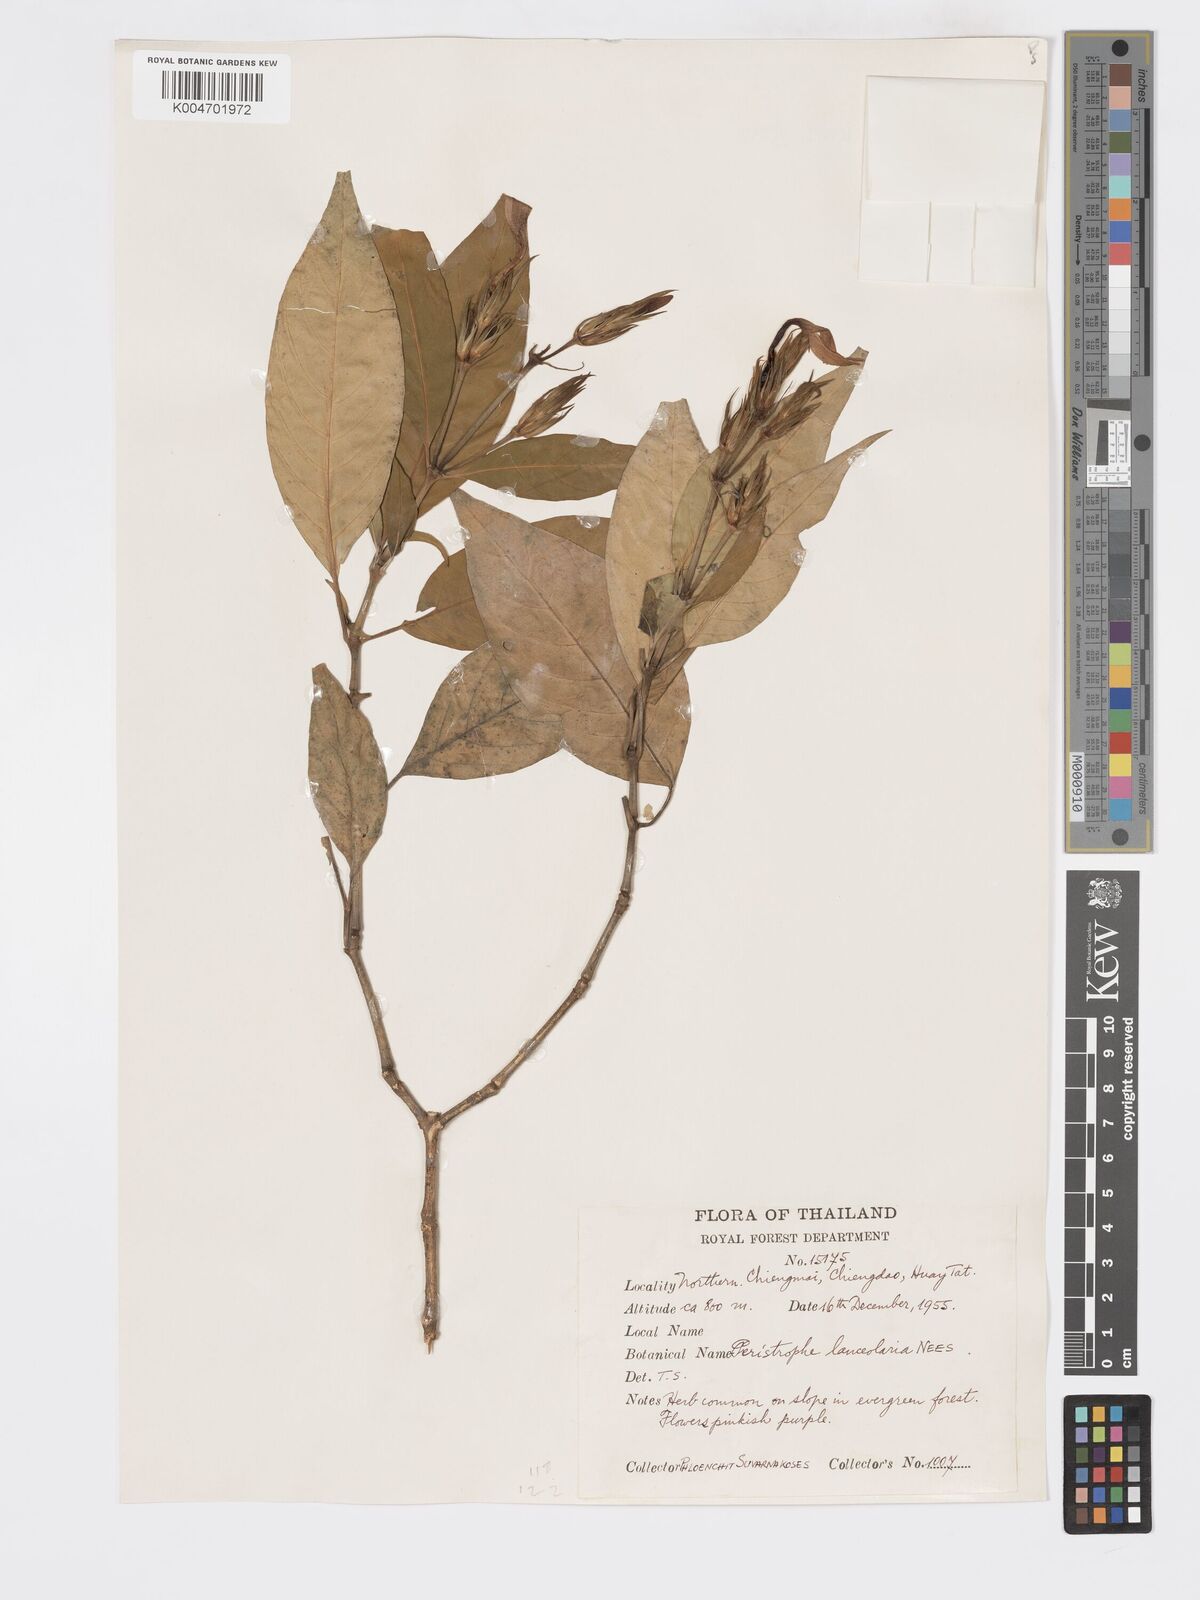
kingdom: Plantae
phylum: Tracheophyta
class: Magnoliopsida
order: Lamiales
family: Acanthaceae
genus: Dicliptera
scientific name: Dicliptera lanceolaria
